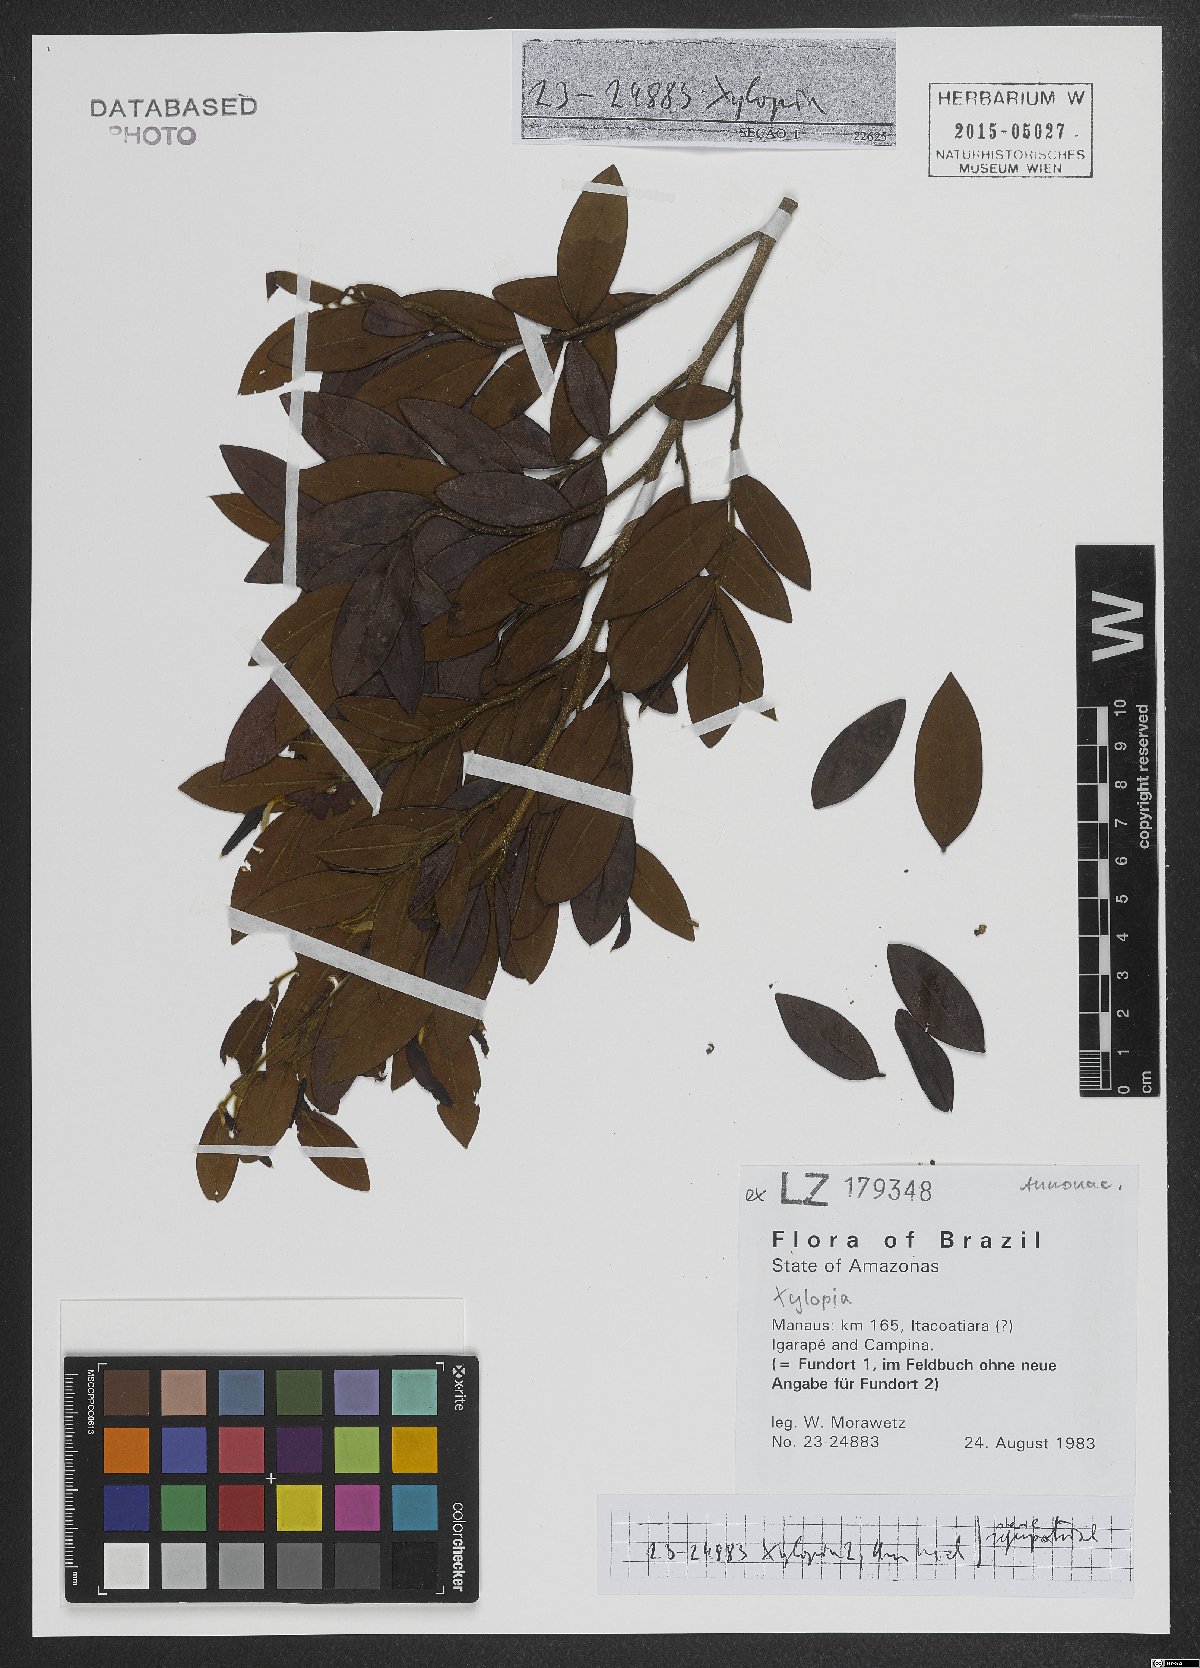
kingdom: Plantae
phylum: Tracheophyta
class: Magnoliopsida
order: Magnoliales
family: Annonaceae
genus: Xylopia
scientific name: Xylopia
